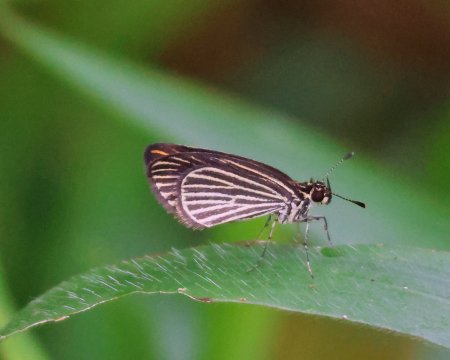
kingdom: Animalia
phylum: Arthropoda
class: Insecta
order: Lepidoptera
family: Hesperiidae
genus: Apaustus
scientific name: Apaustus gracilis
